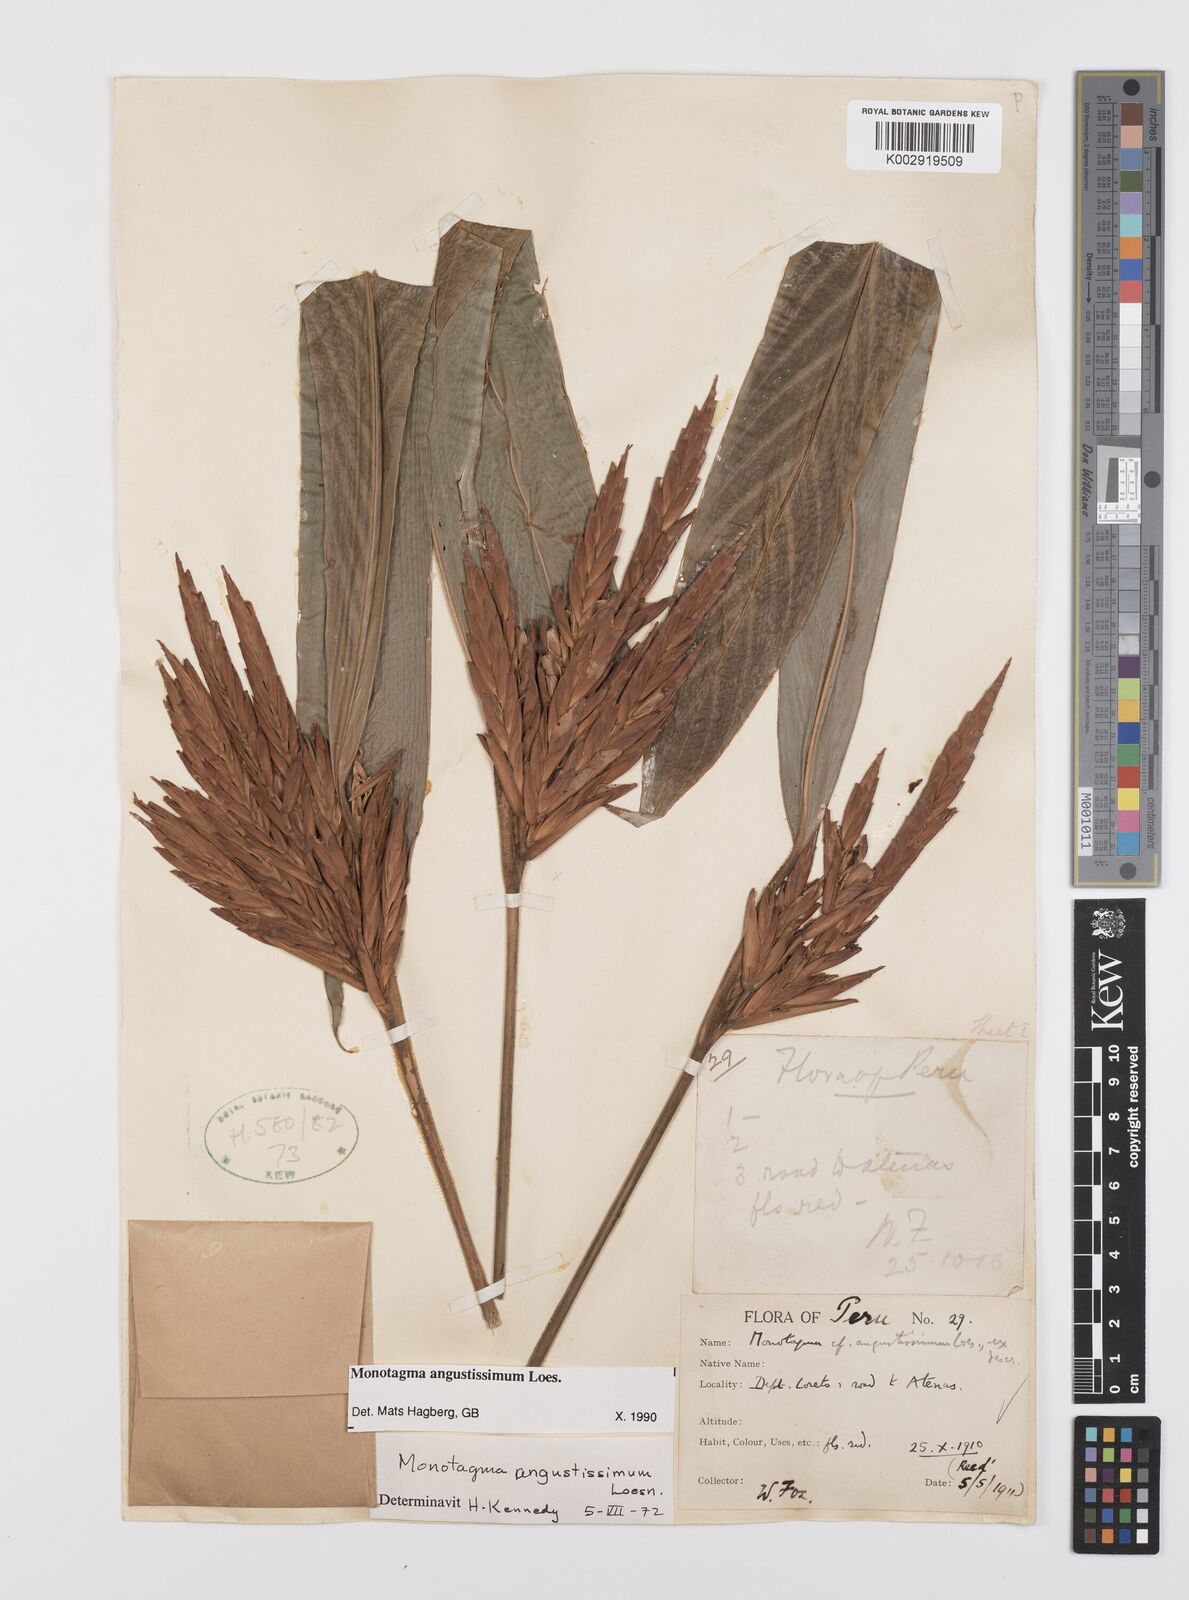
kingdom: Plantae
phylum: Tracheophyta
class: Liliopsida
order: Zingiberales
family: Marantaceae
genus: Monotagma
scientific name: Monotagma angustissimum
